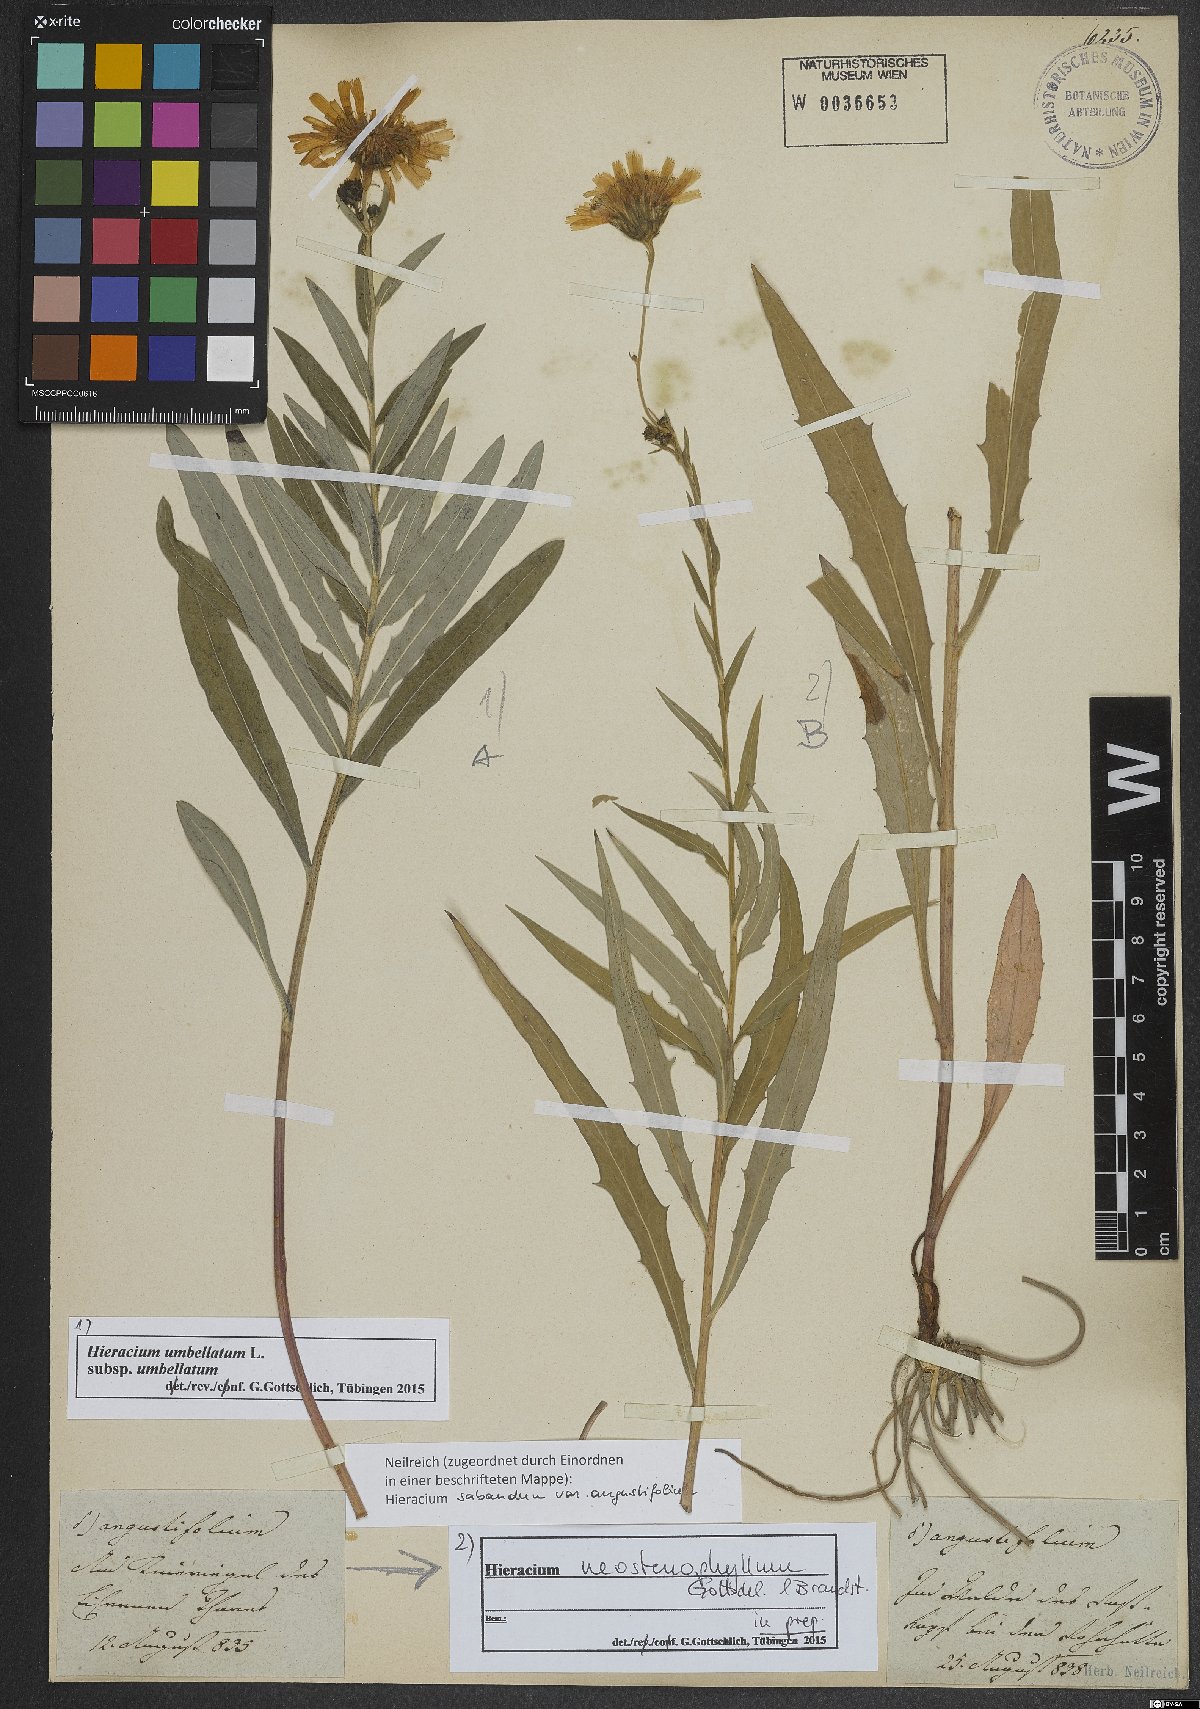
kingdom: Plantae
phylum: Tracheophyta
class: Magnoliopsida
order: Asterales
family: Asteraceae
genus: Hieracium
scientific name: Hieracium neostenophyllum
